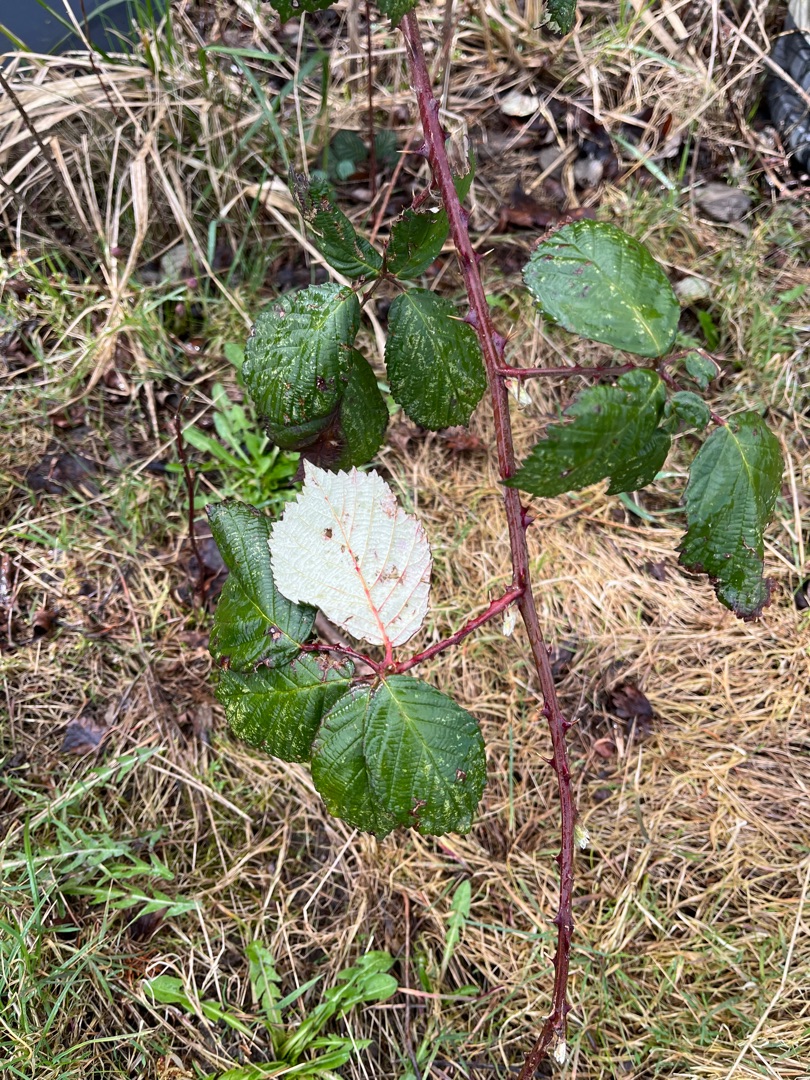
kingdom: Plantae
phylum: Tracheophyta
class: Magnoliopsida
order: Rosales
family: Rosaceae
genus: Rubus
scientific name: Rubus armeniacus
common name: Armensk brombær
